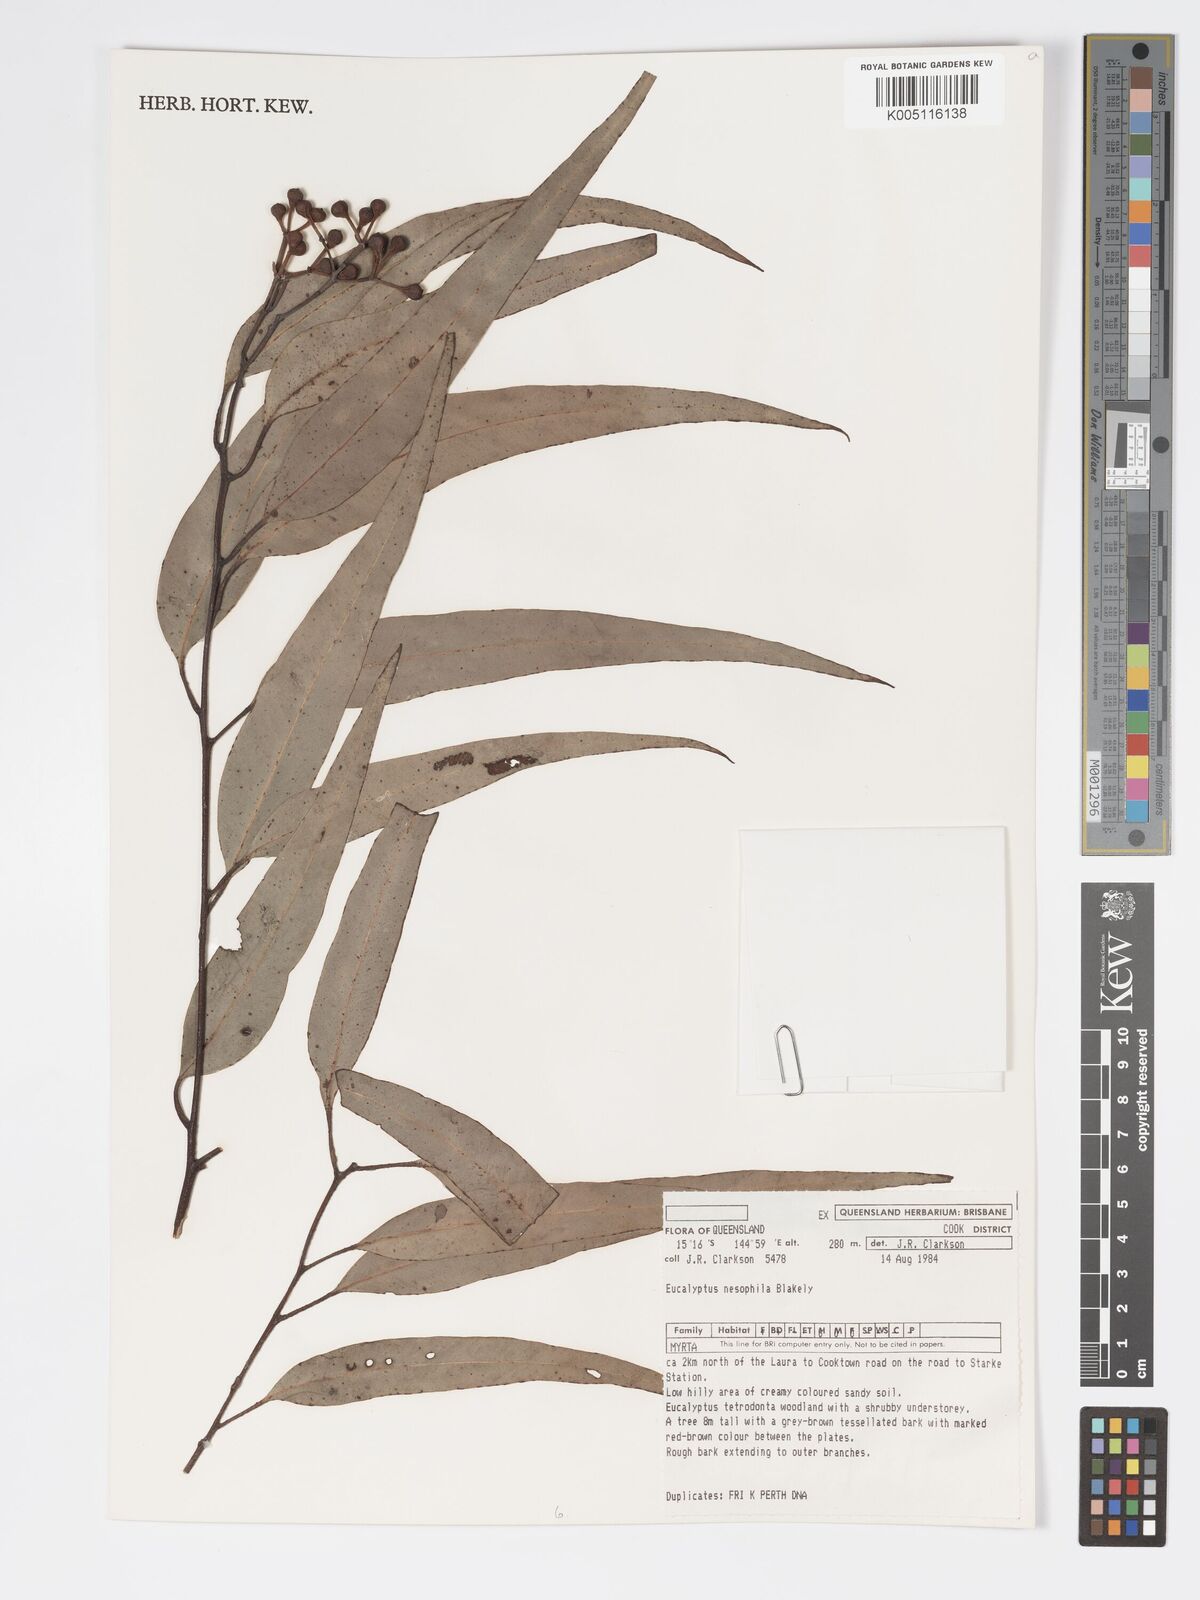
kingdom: Plantae
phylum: Tracheophyta
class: Magnoliopsida
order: Myrtales
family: Myrtaceae
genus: Corymbia
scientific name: Corymbia nesophila
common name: Melville-island-bloodwood
